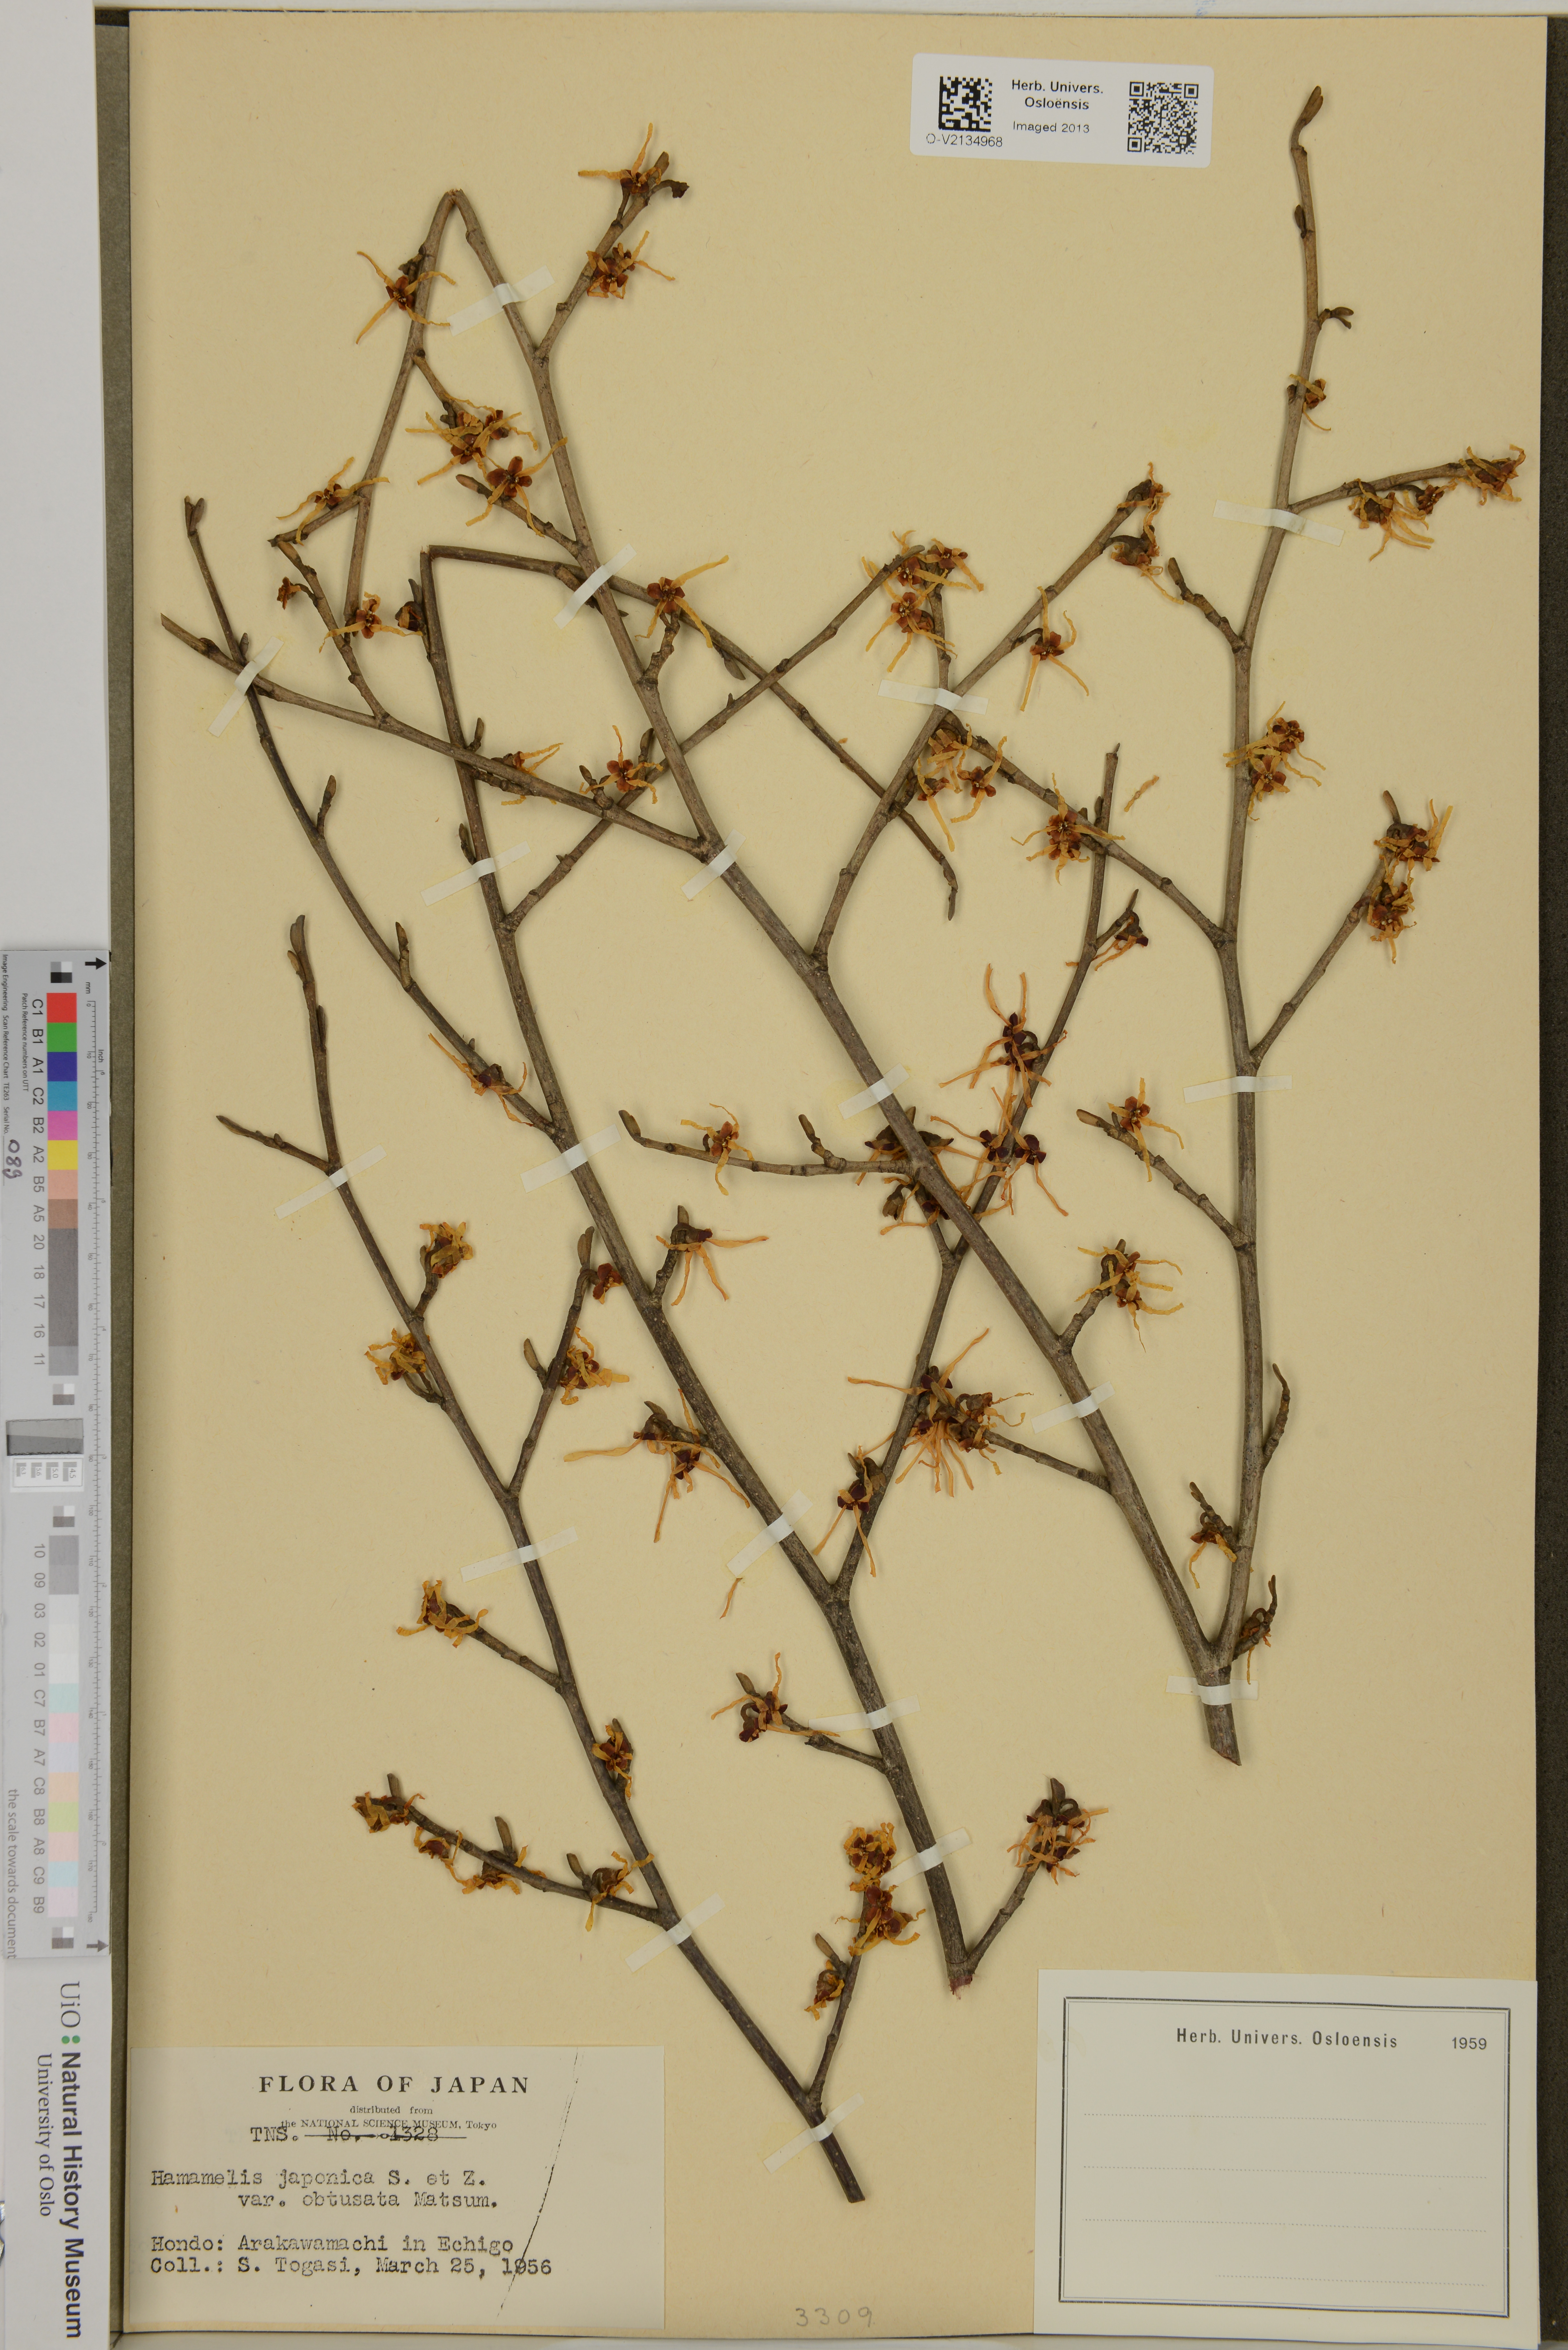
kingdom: Plantae
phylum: Tracheophyta
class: Magnoliopsida
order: Saxifragales
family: Hamamelidaceae
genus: Hamamelis
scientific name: Hamamelis japonica
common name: Japanese witch-hazel
